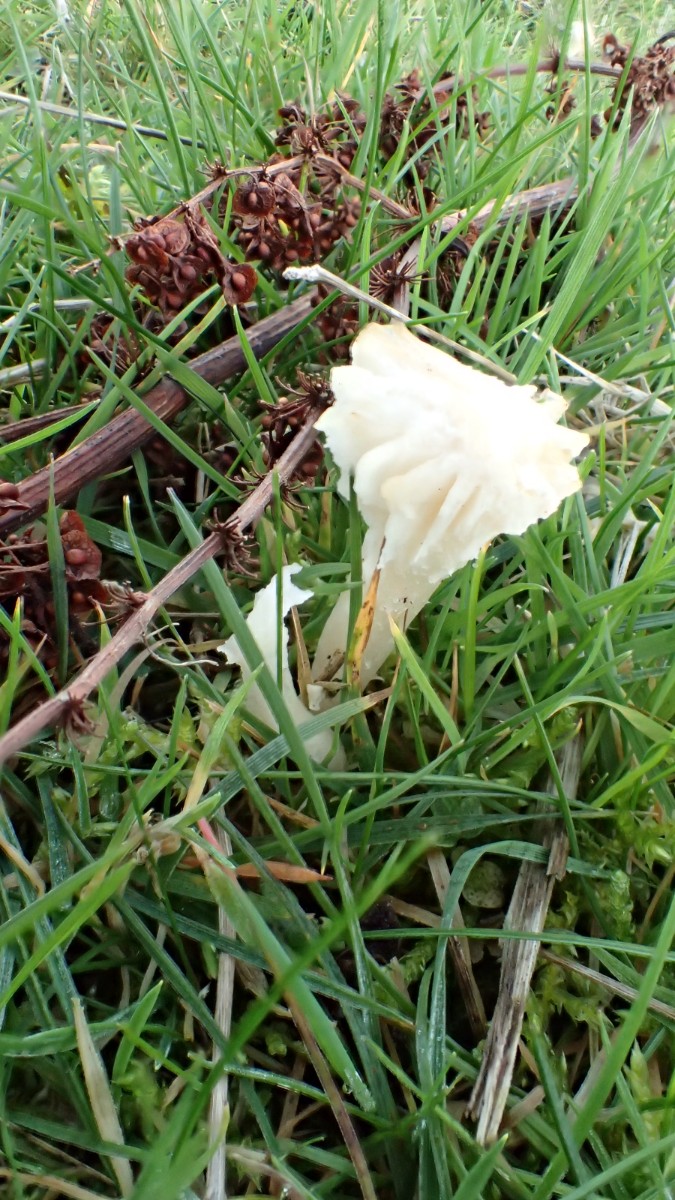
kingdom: Fungi
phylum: Basidiomycota
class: Agaricomycetes
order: Agaricales
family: Hygrophoraceae
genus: Cuphophyllus
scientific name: Cuphophyllus virgineus
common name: snehvid vokshat
